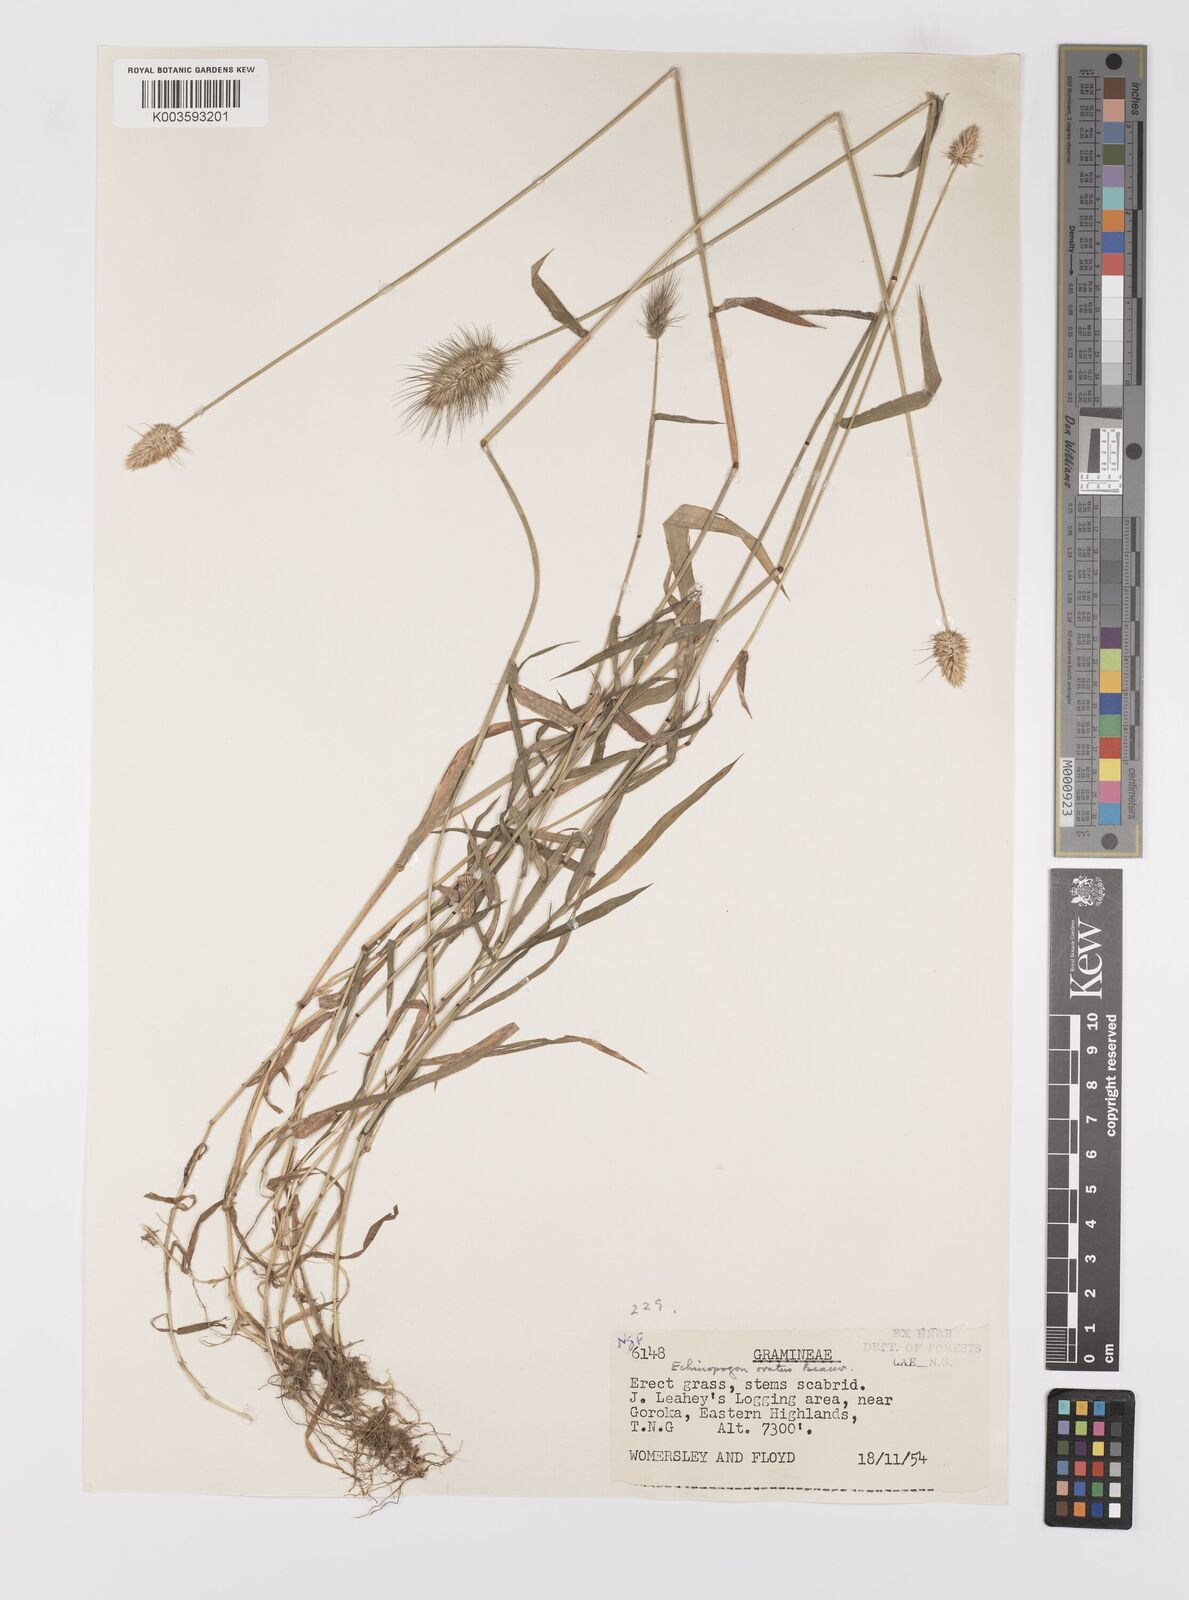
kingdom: Plantae
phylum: Tracheophyta
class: Liliopsida
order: Poales
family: Poaceae
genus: Echinopogon
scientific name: Echinopogon ovatus
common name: Hedgehog-grass
